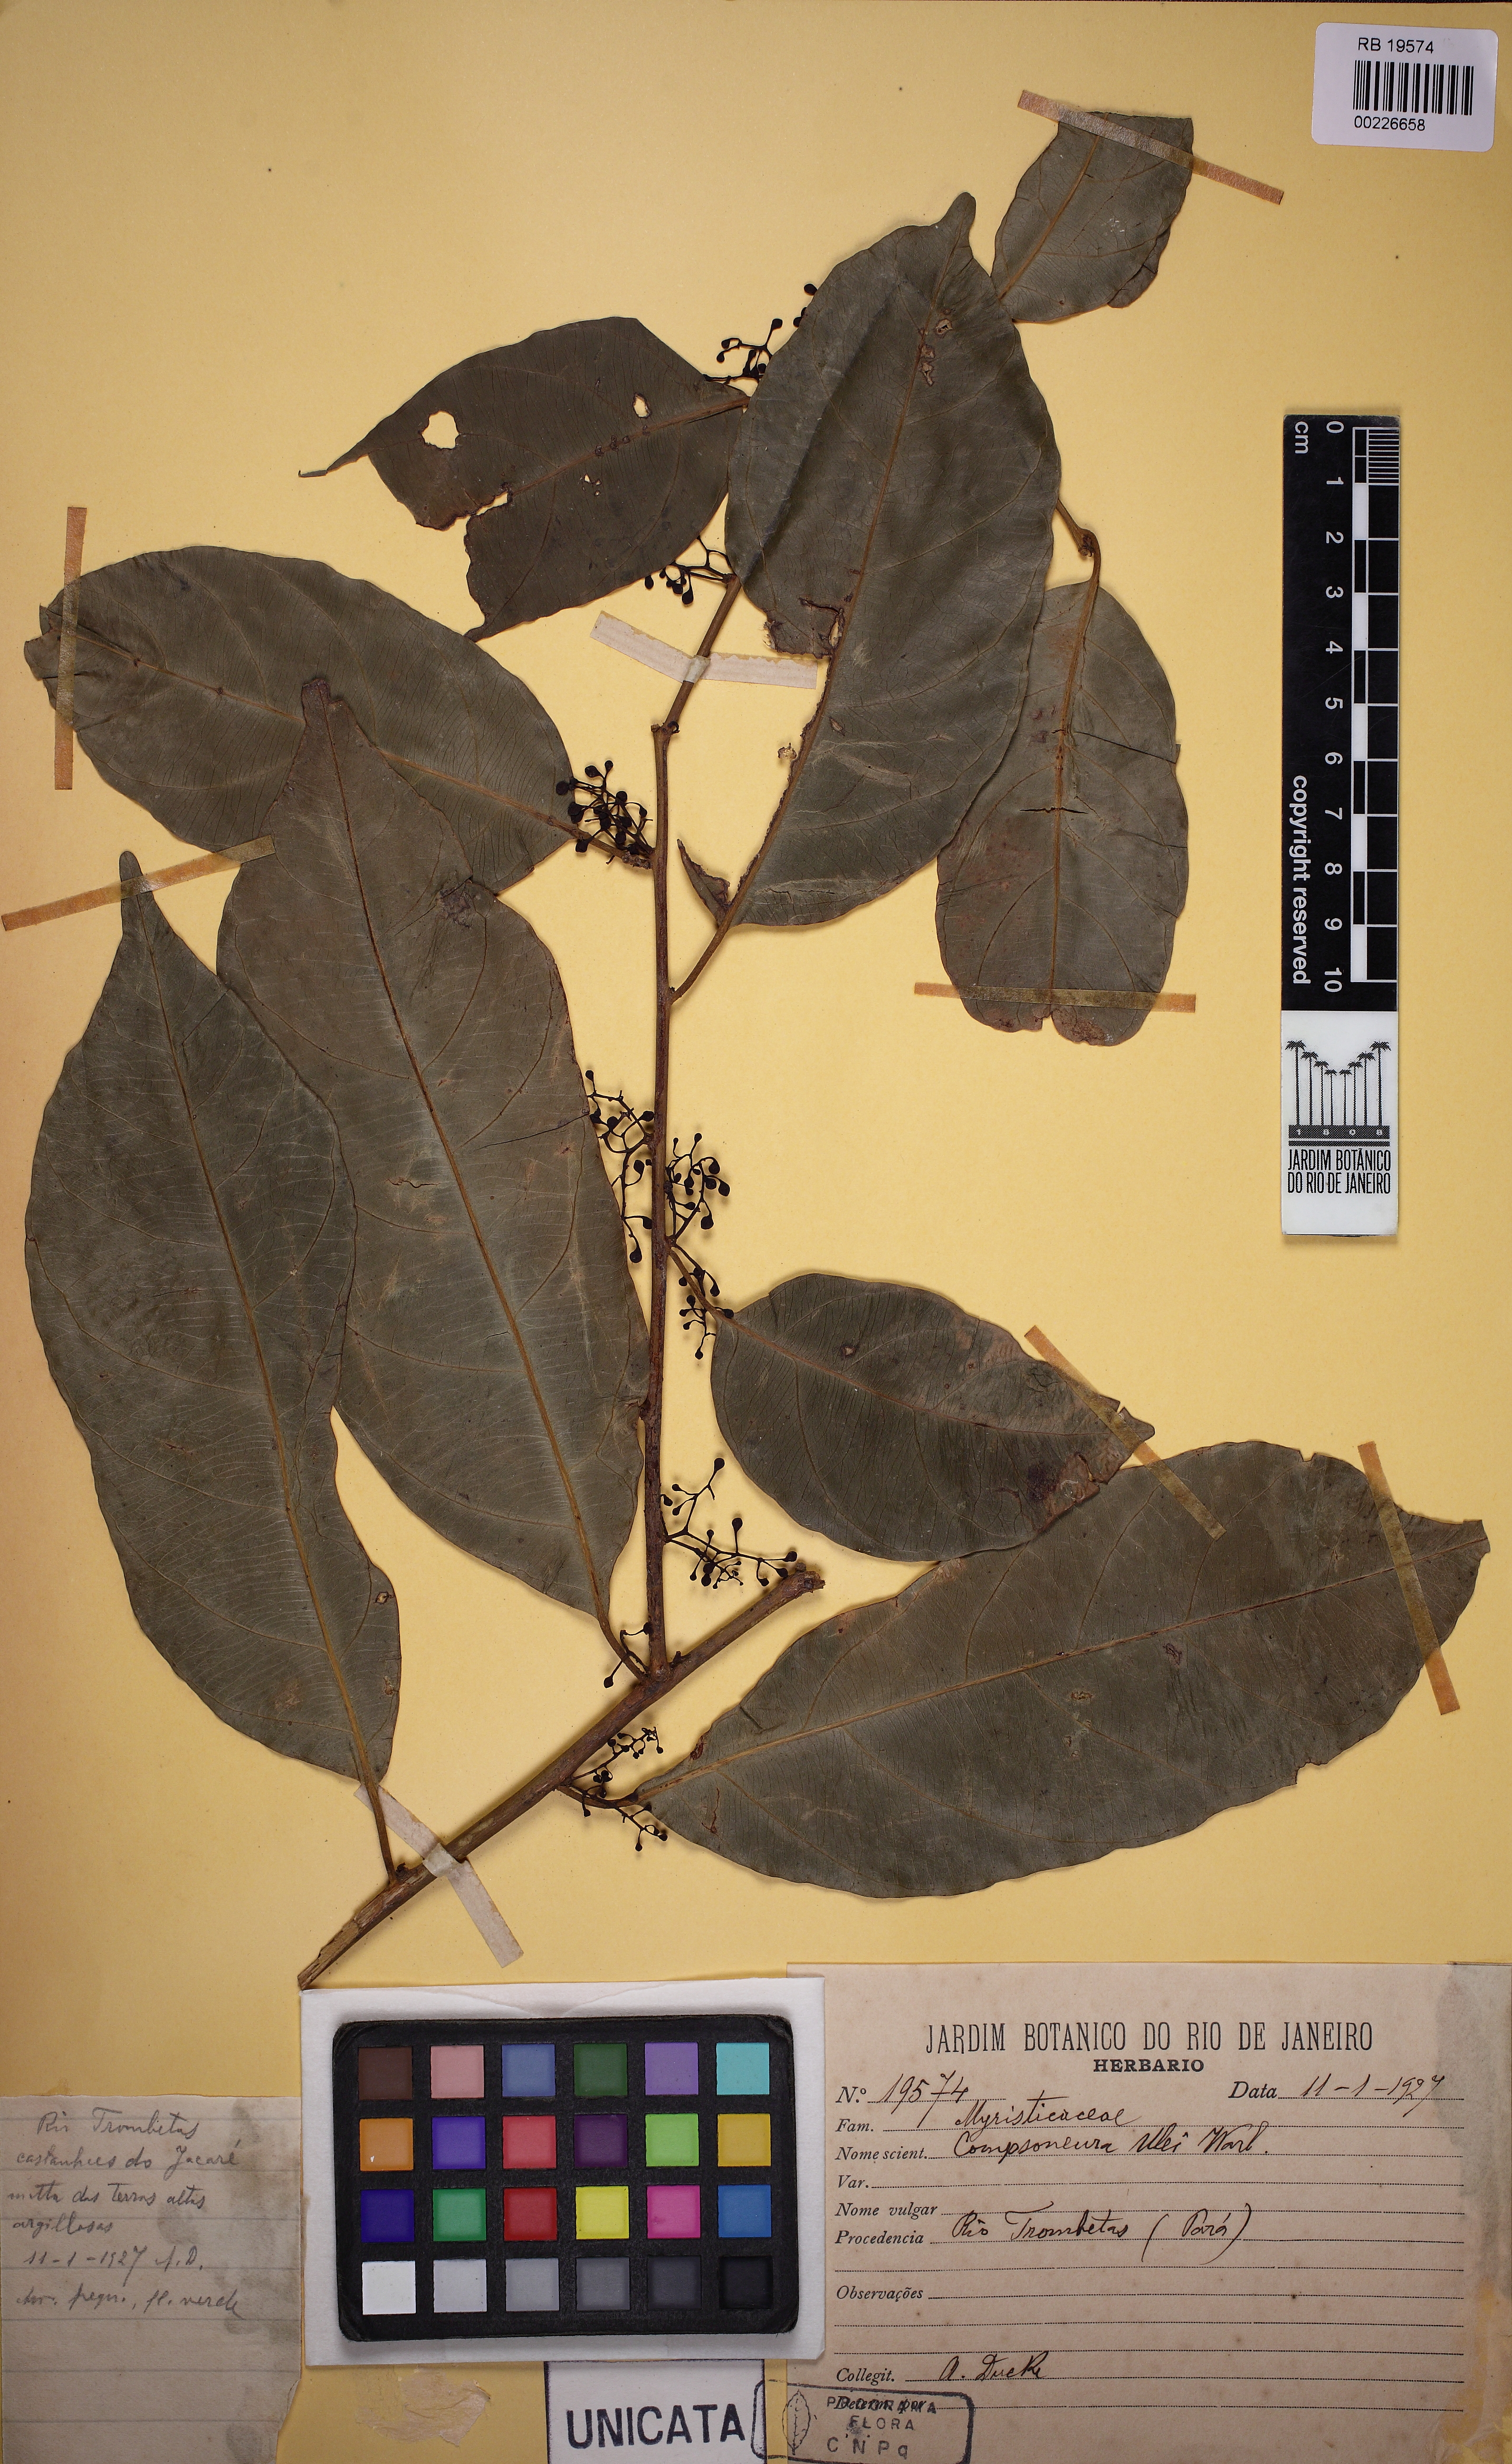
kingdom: Plantae
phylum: Tracheophyta
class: Magnoliopsida
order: Magnoliales
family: Myristicaceae
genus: Compsoneura
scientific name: Compsoneura ulei
